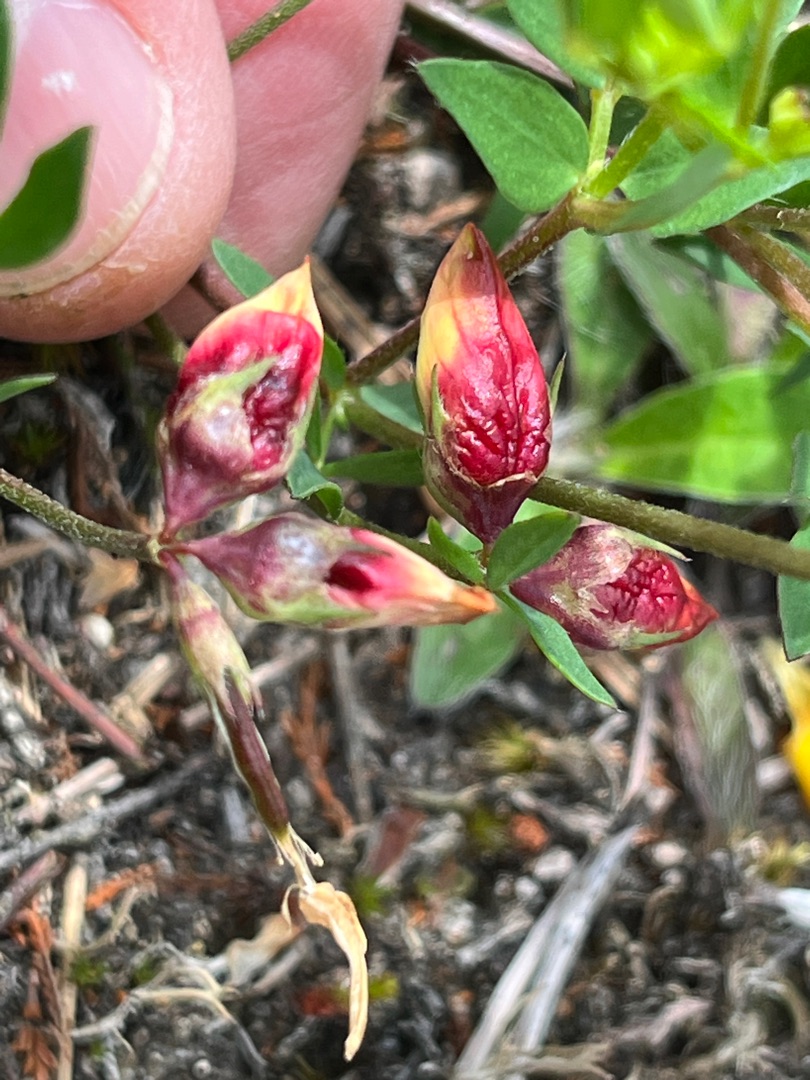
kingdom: Animalia
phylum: Arthropoda
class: Insecta
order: Diptera
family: Cecidomyiidae
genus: Contarinia
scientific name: Contarinia loti
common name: Kællingetandblomstgalmyg
